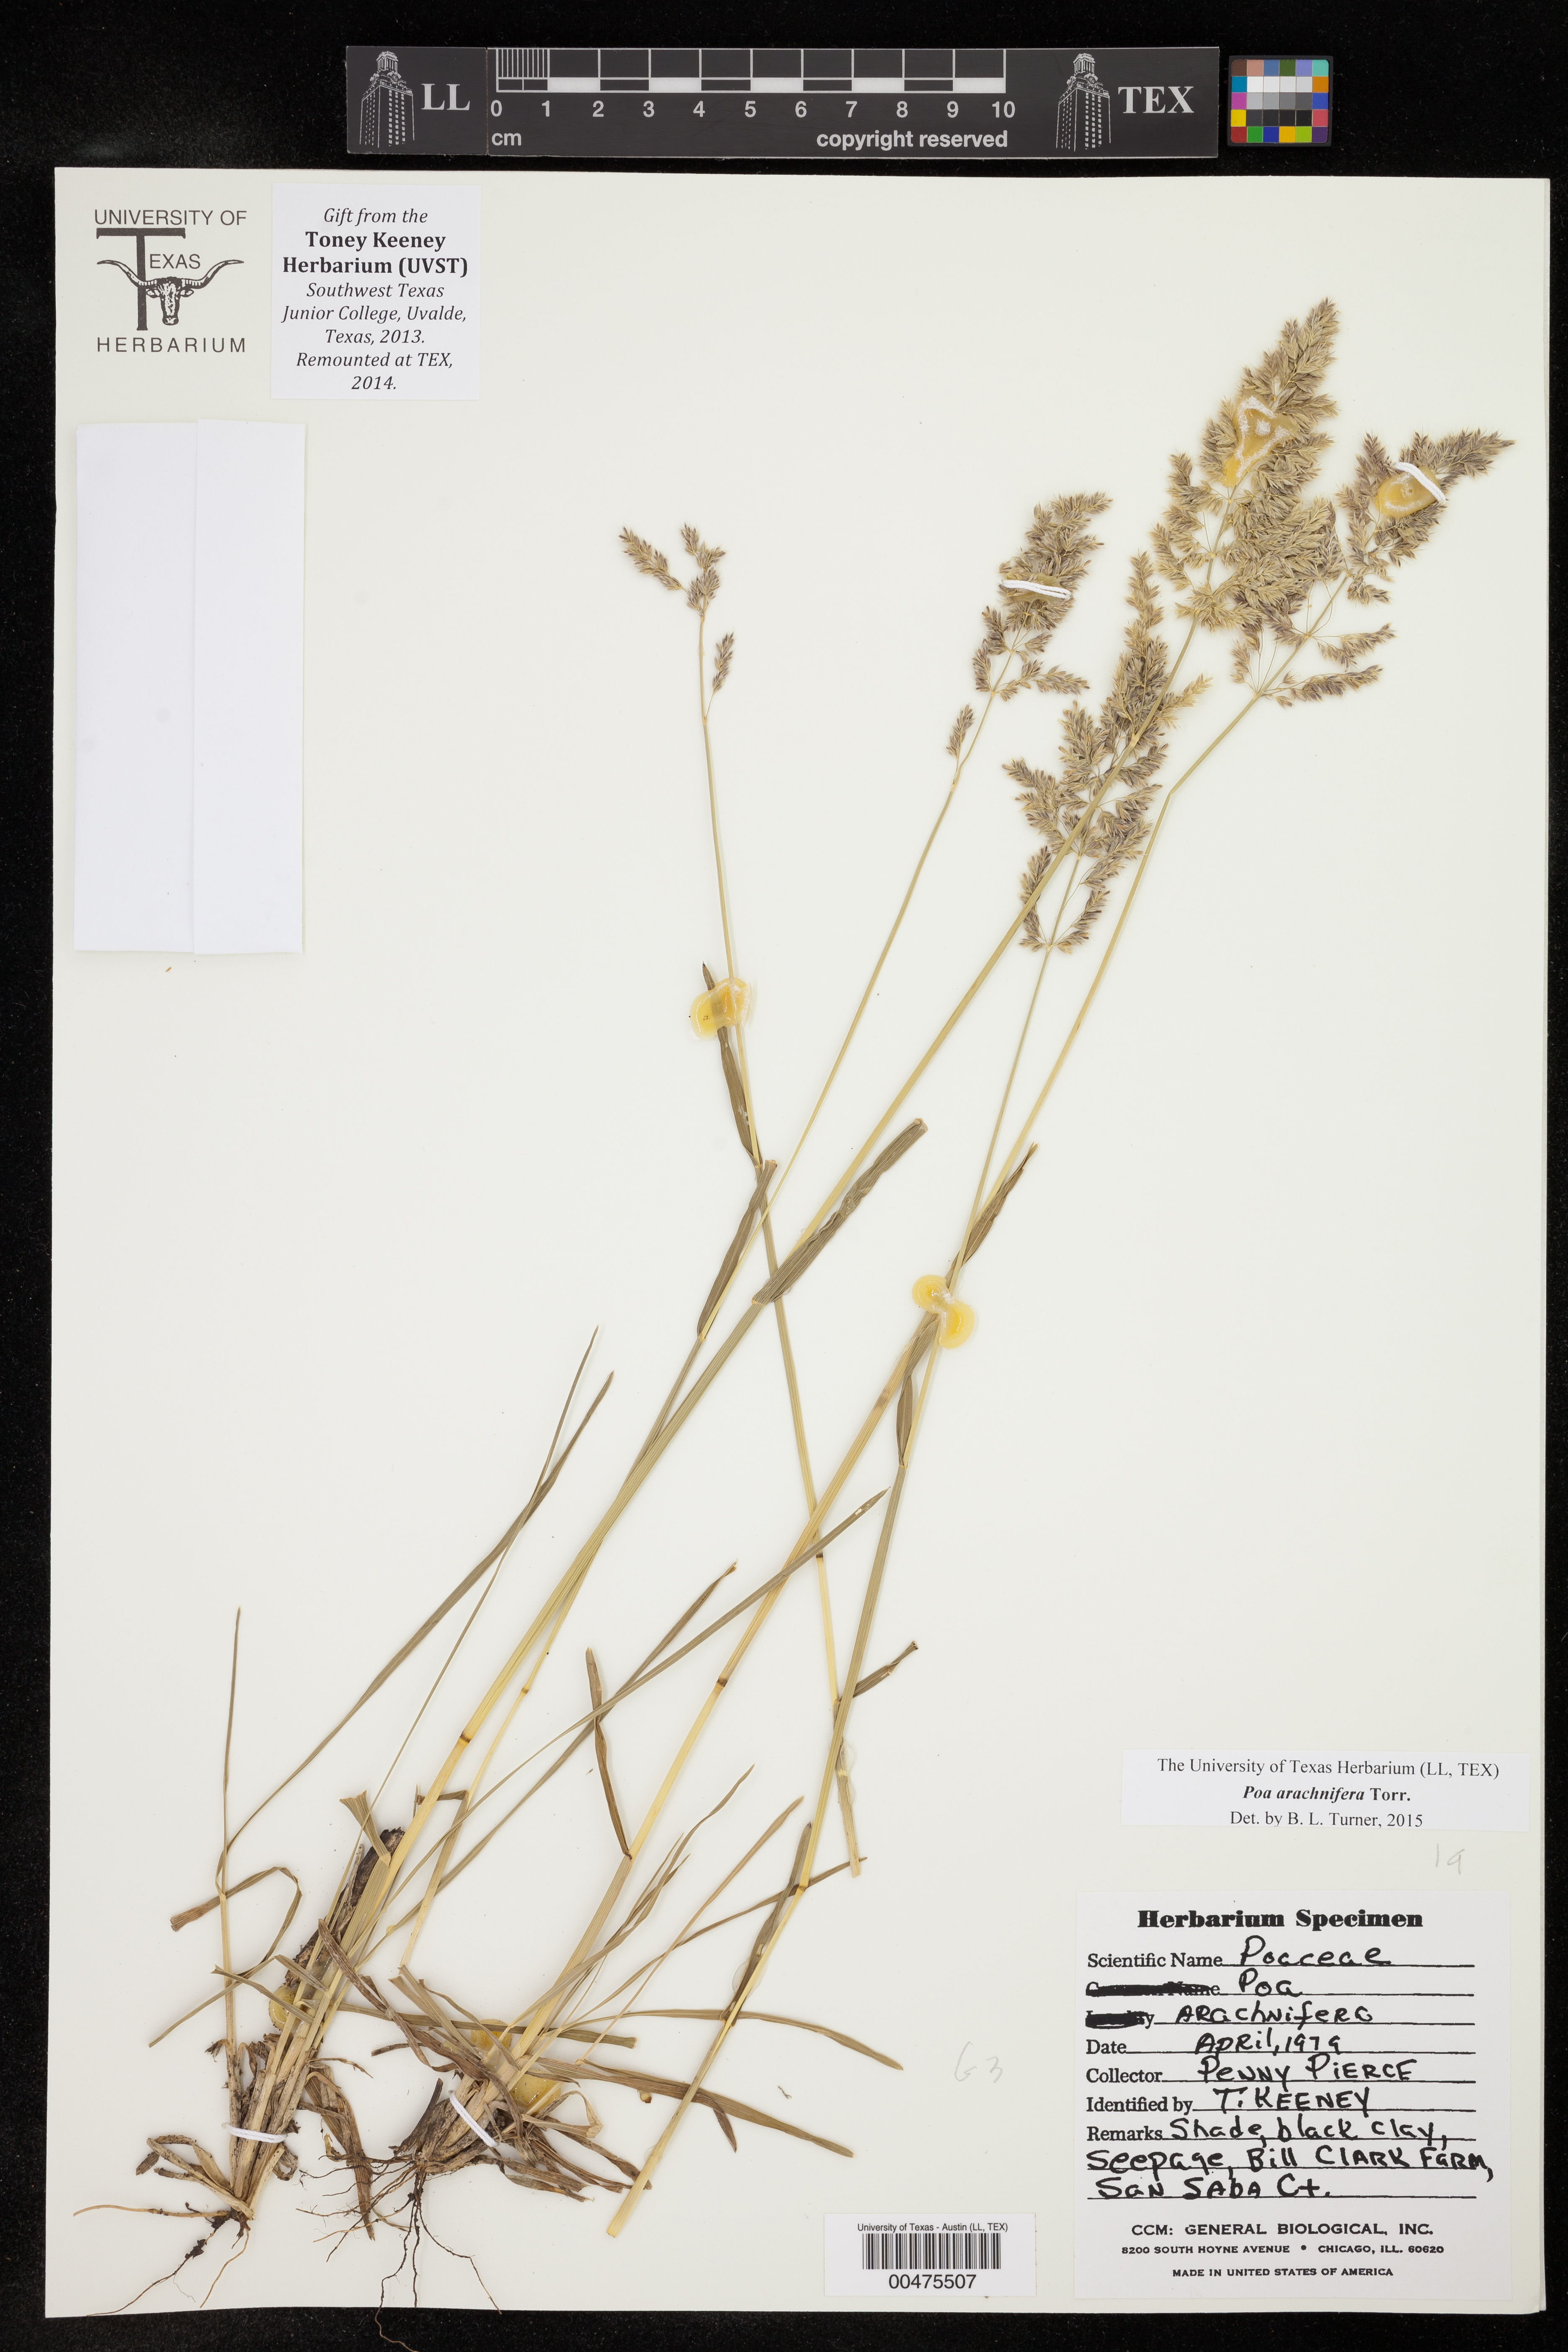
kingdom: Plantae
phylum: Tracheophyta
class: Liliopsida
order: Poales
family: Poaceae
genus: Poa
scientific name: Poa arachnifera
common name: Texas bluegrass
